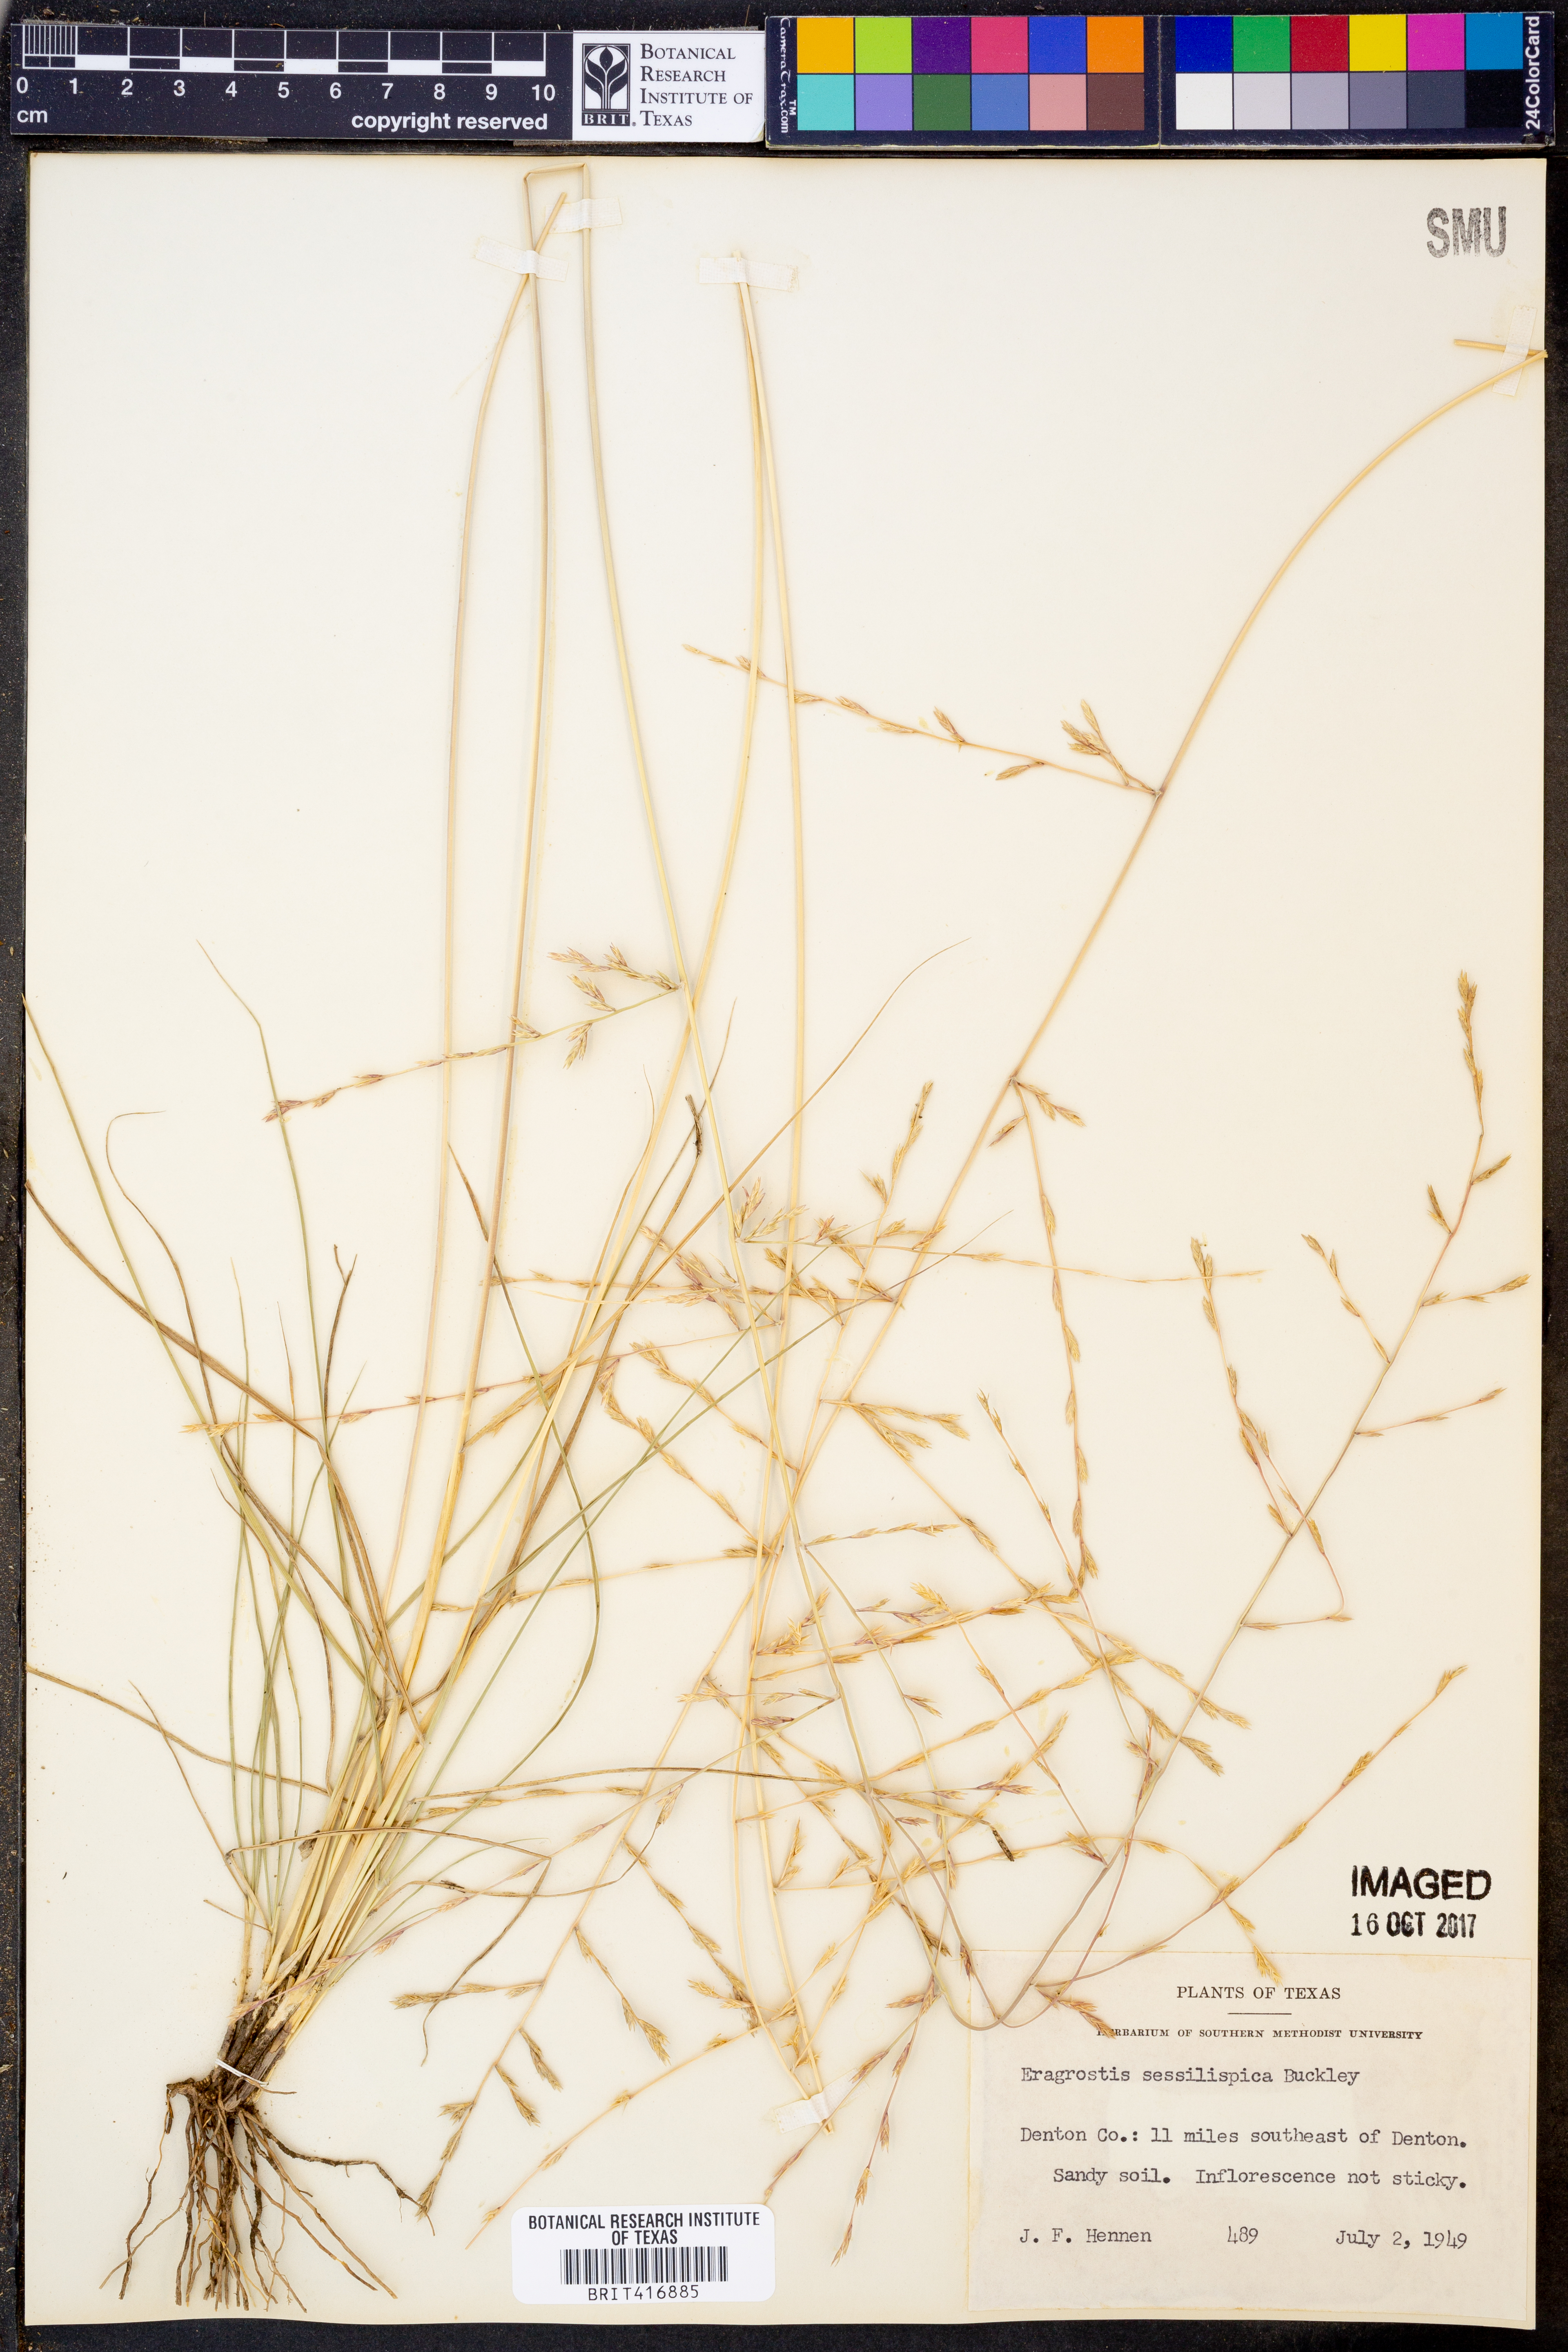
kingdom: Plantae
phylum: Tracheophyta
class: Liliopsida
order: Poales
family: Poaceae
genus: Eragrostis
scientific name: Eragrostis sessilispica
